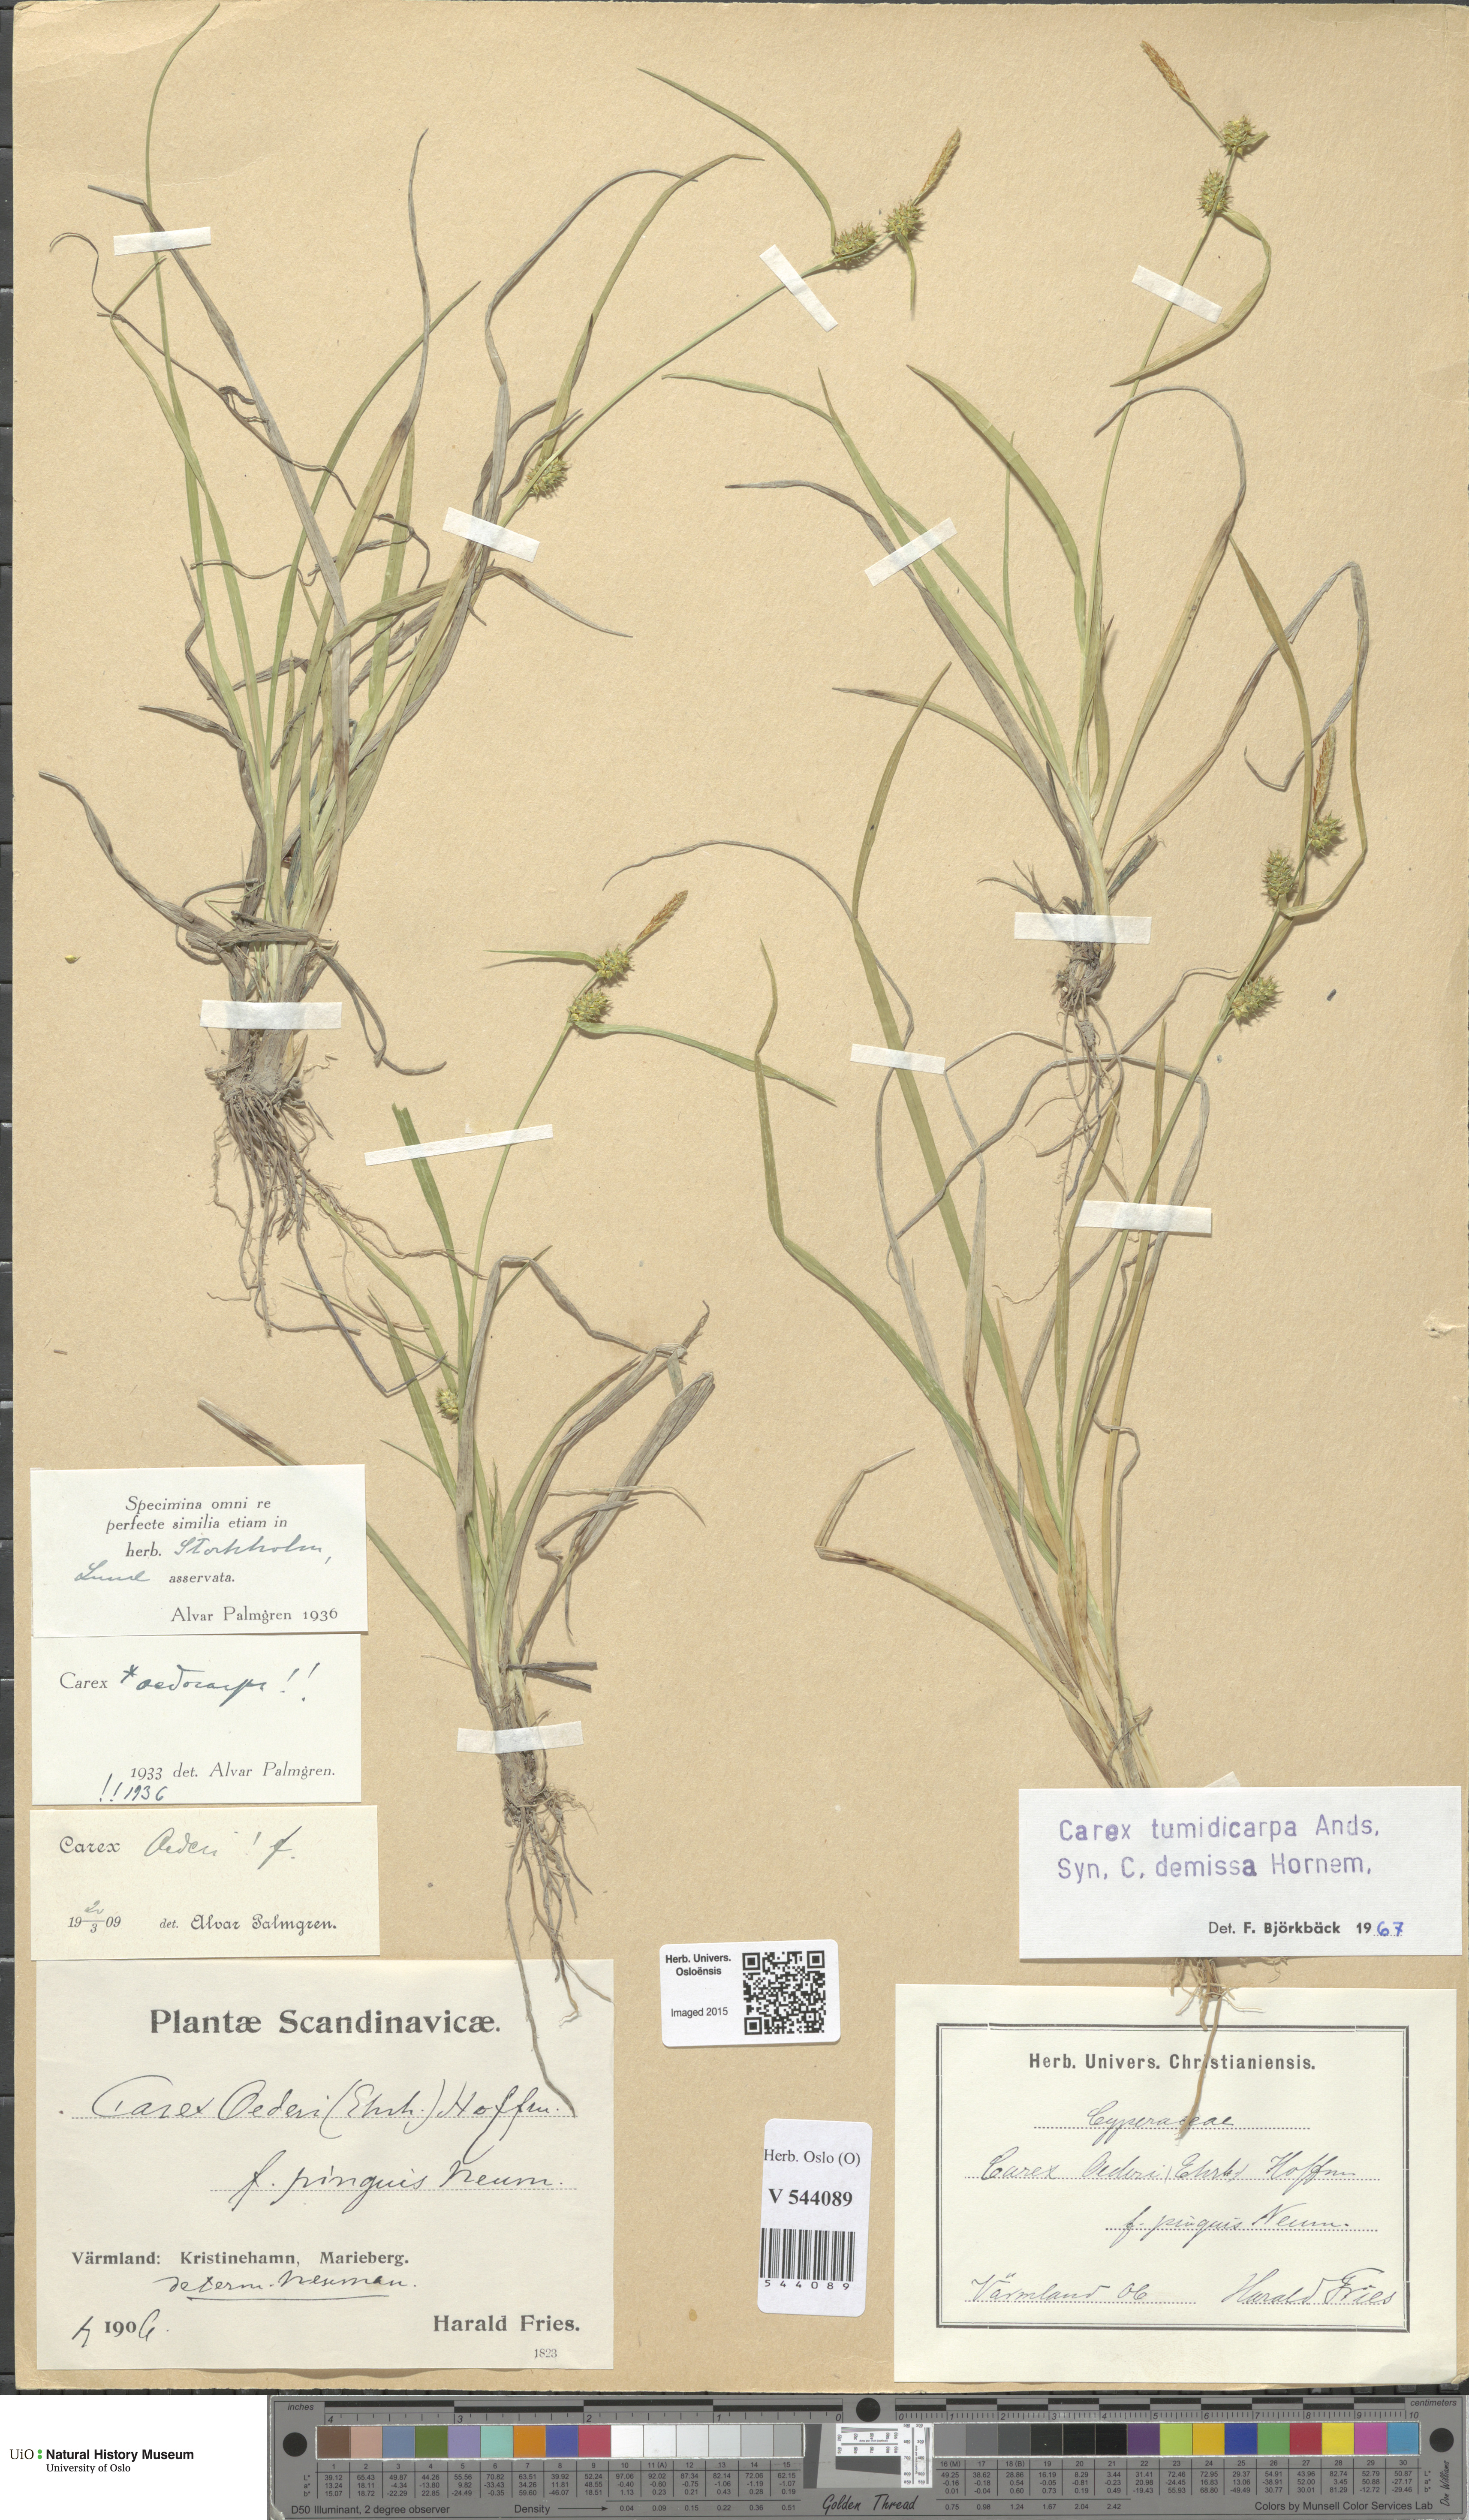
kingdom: Plantae
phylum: Tracheophyta
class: Liliopsida
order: Poales
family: Cyperaceae
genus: Carex
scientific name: Carex demissa
